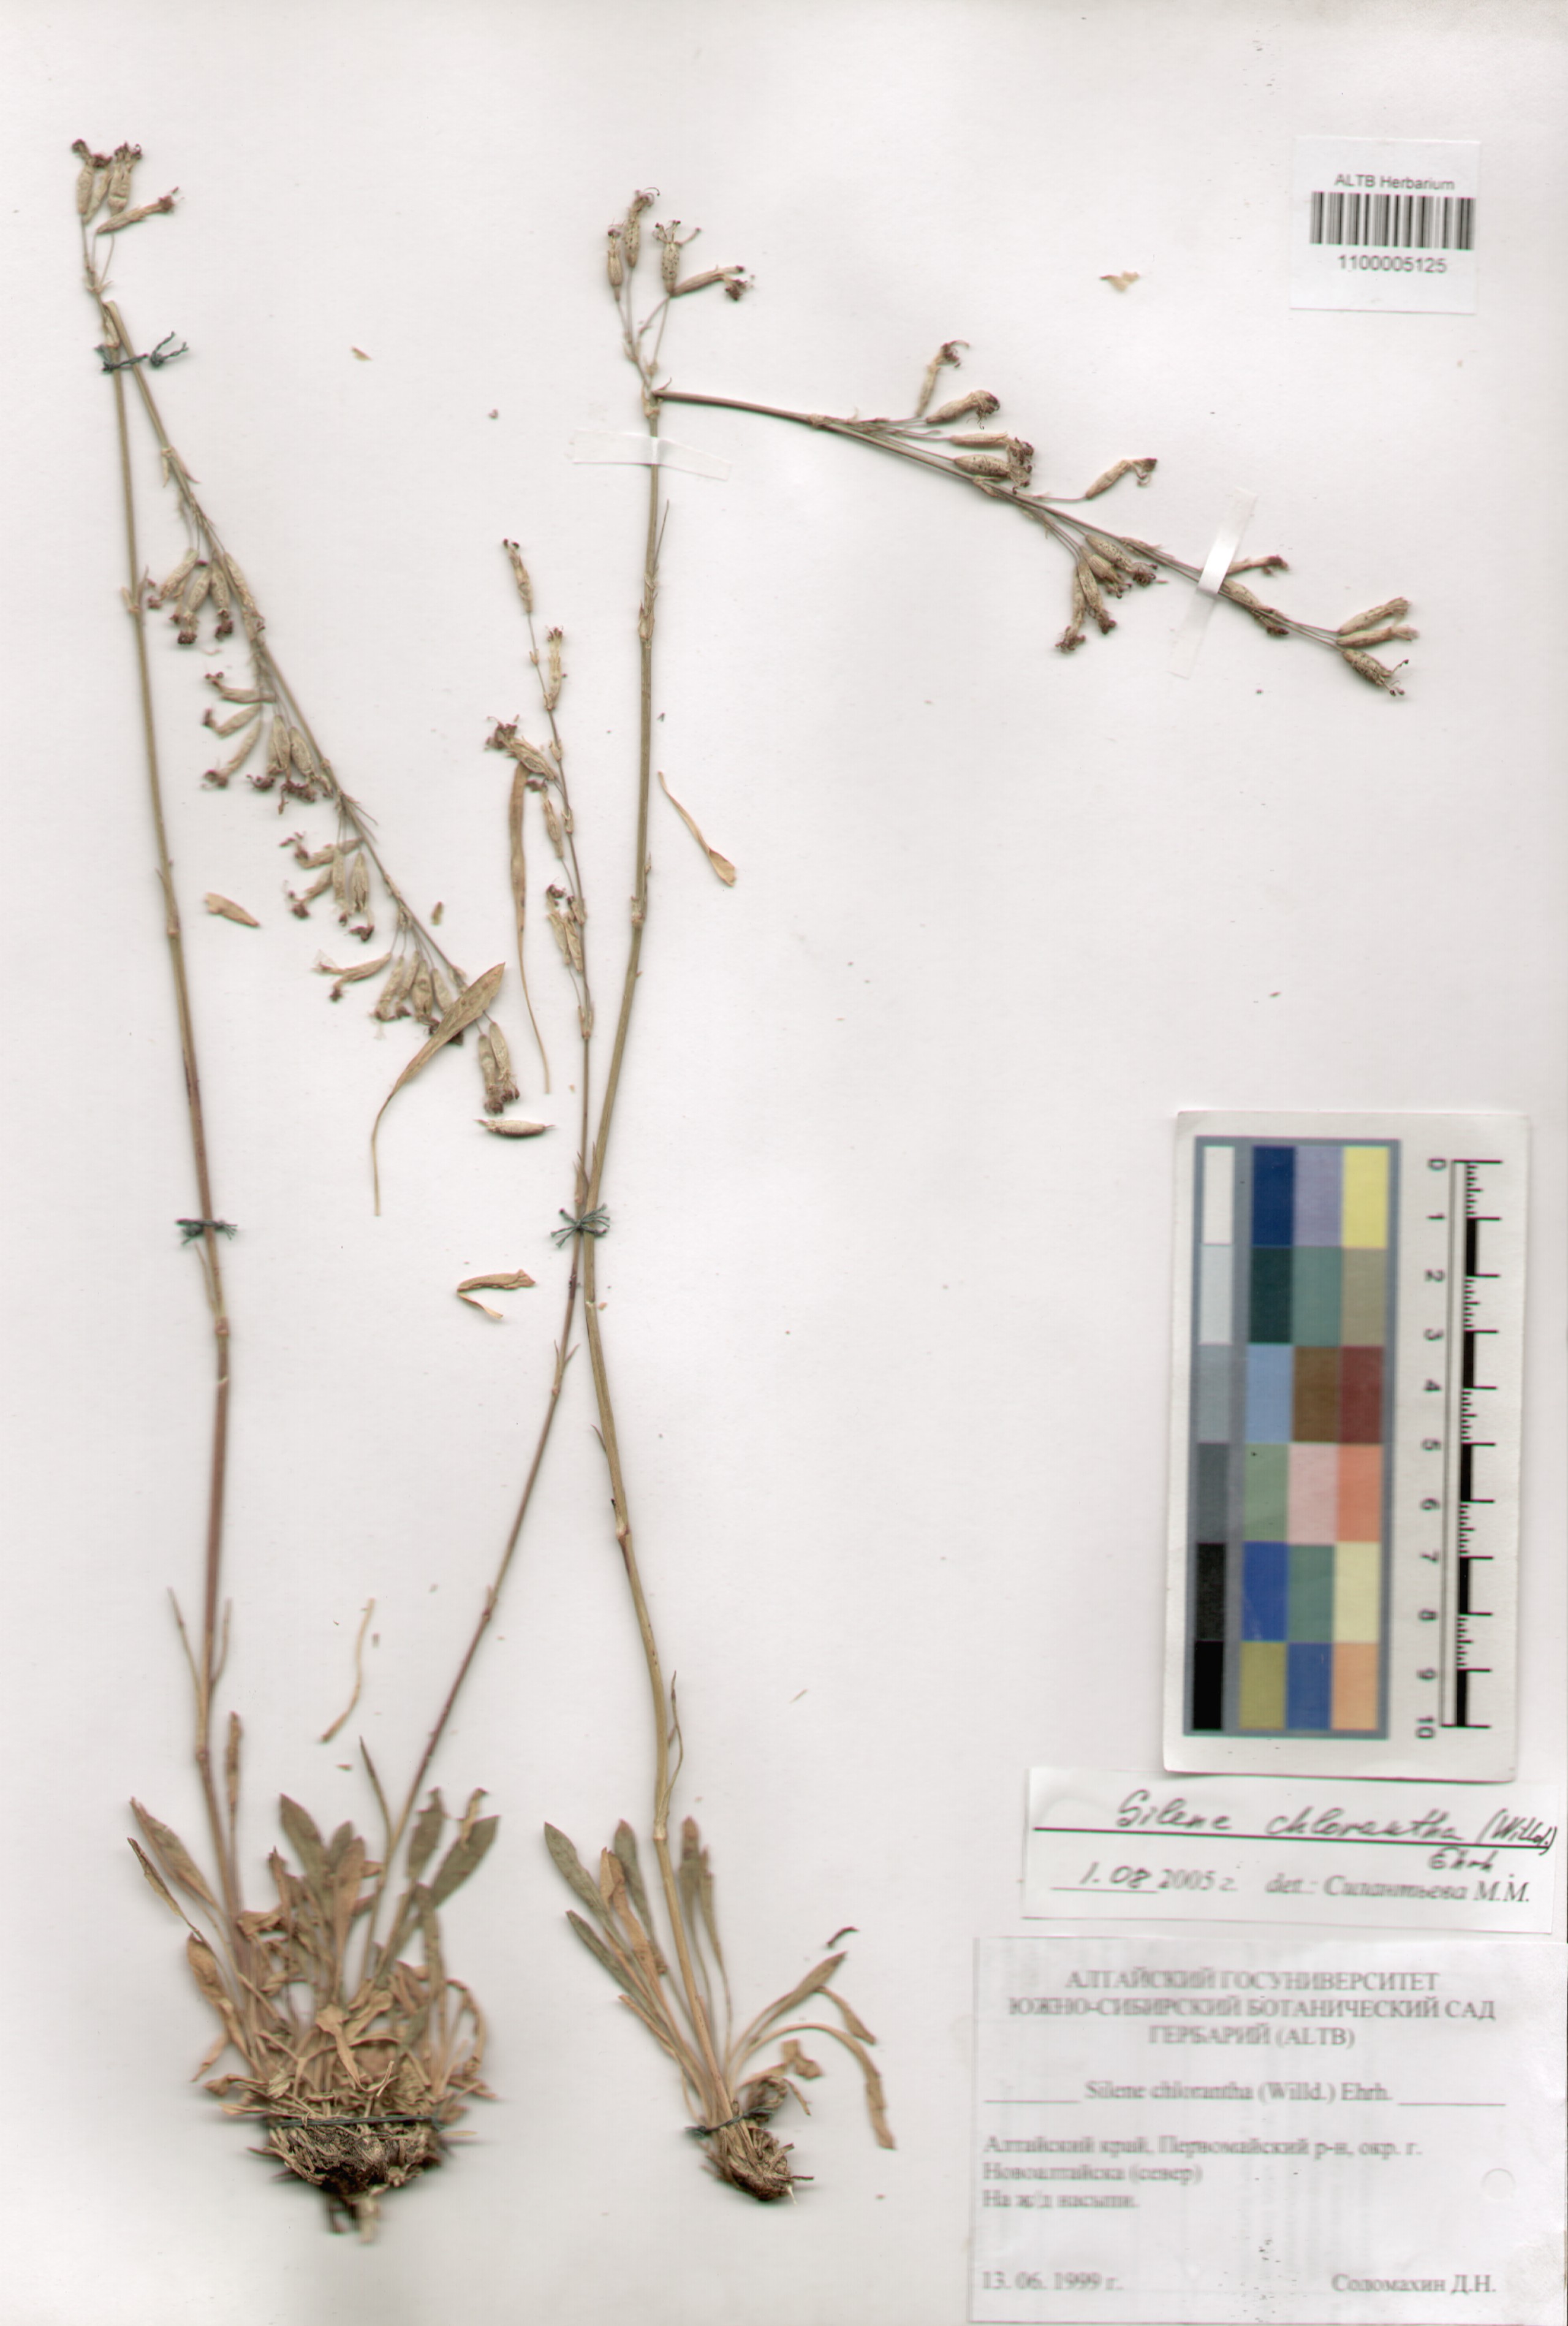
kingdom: Plantae
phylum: Tracheophyta
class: Magnoliopsida
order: Caryophyllales
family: Caryophyllaceae
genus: Silene
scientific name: Silene chlorantha
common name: Yellowgreen catchfly
